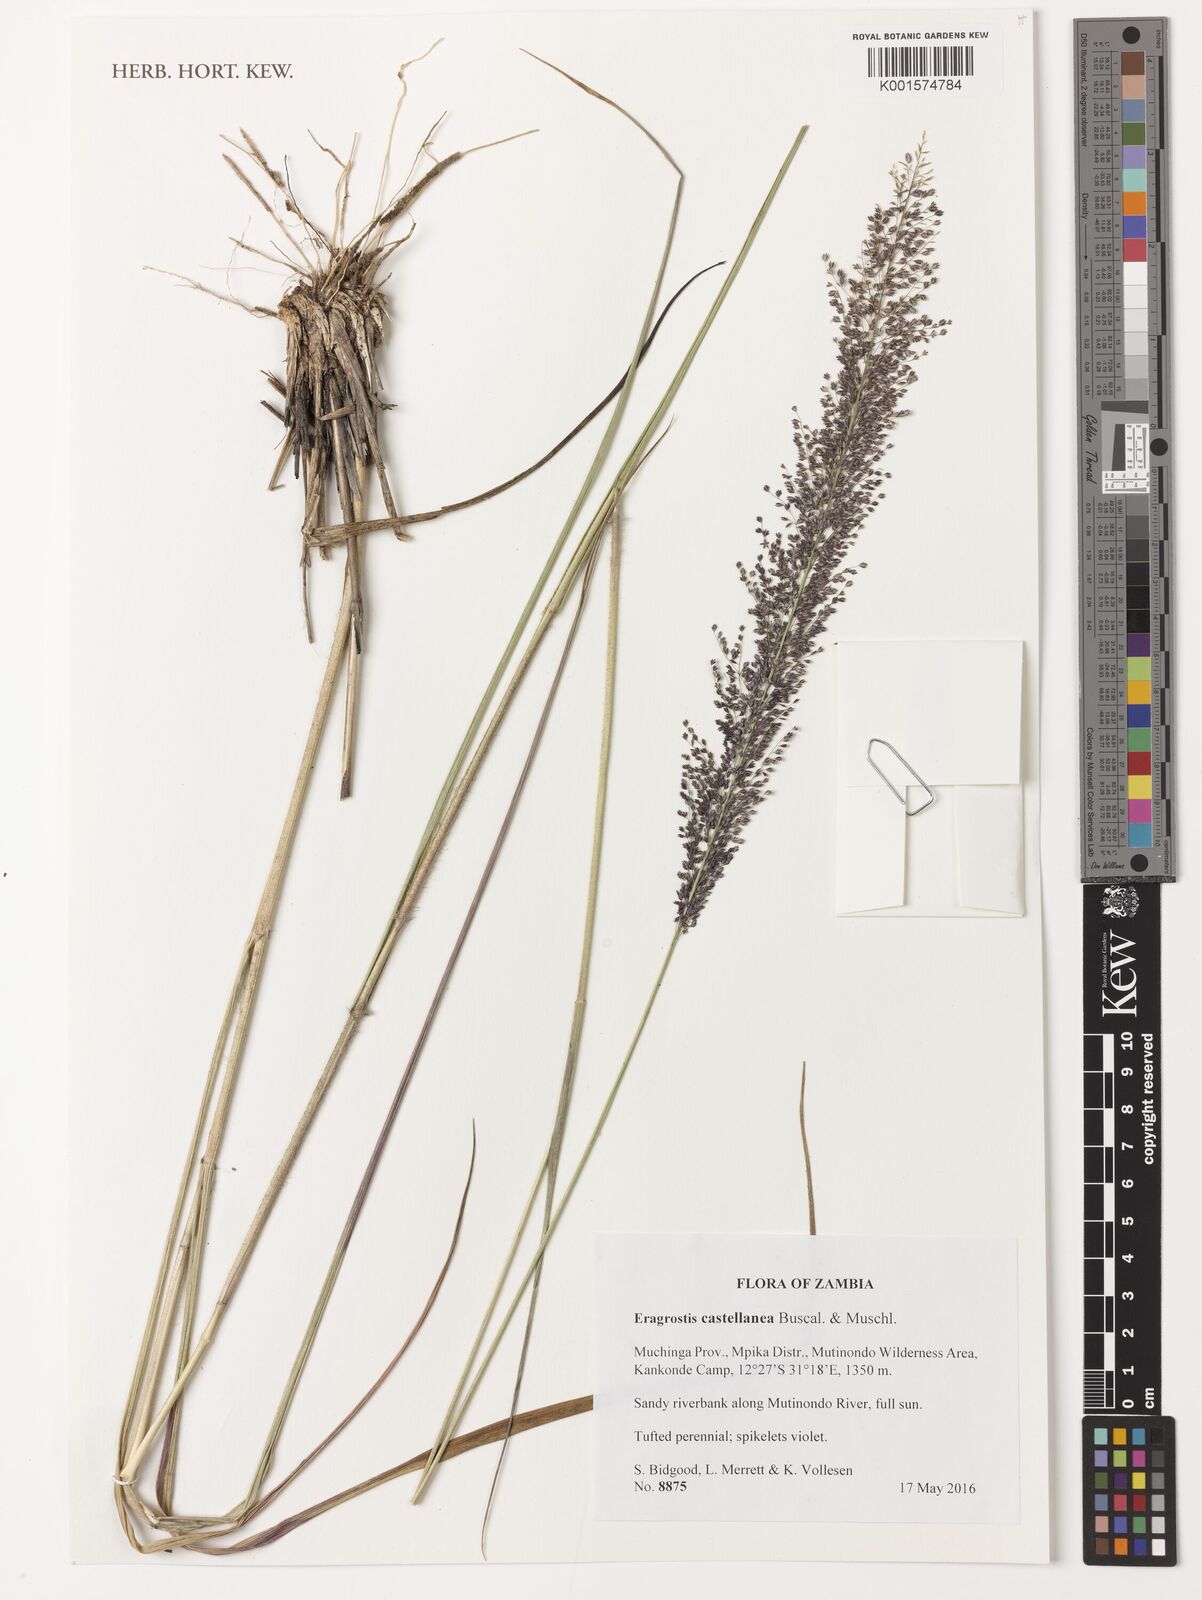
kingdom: Plantae
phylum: Tracheophyta
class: Liliopsida
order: Poales
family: Poaceae
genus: Eragrostis
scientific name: Eragrostis castellaneana
